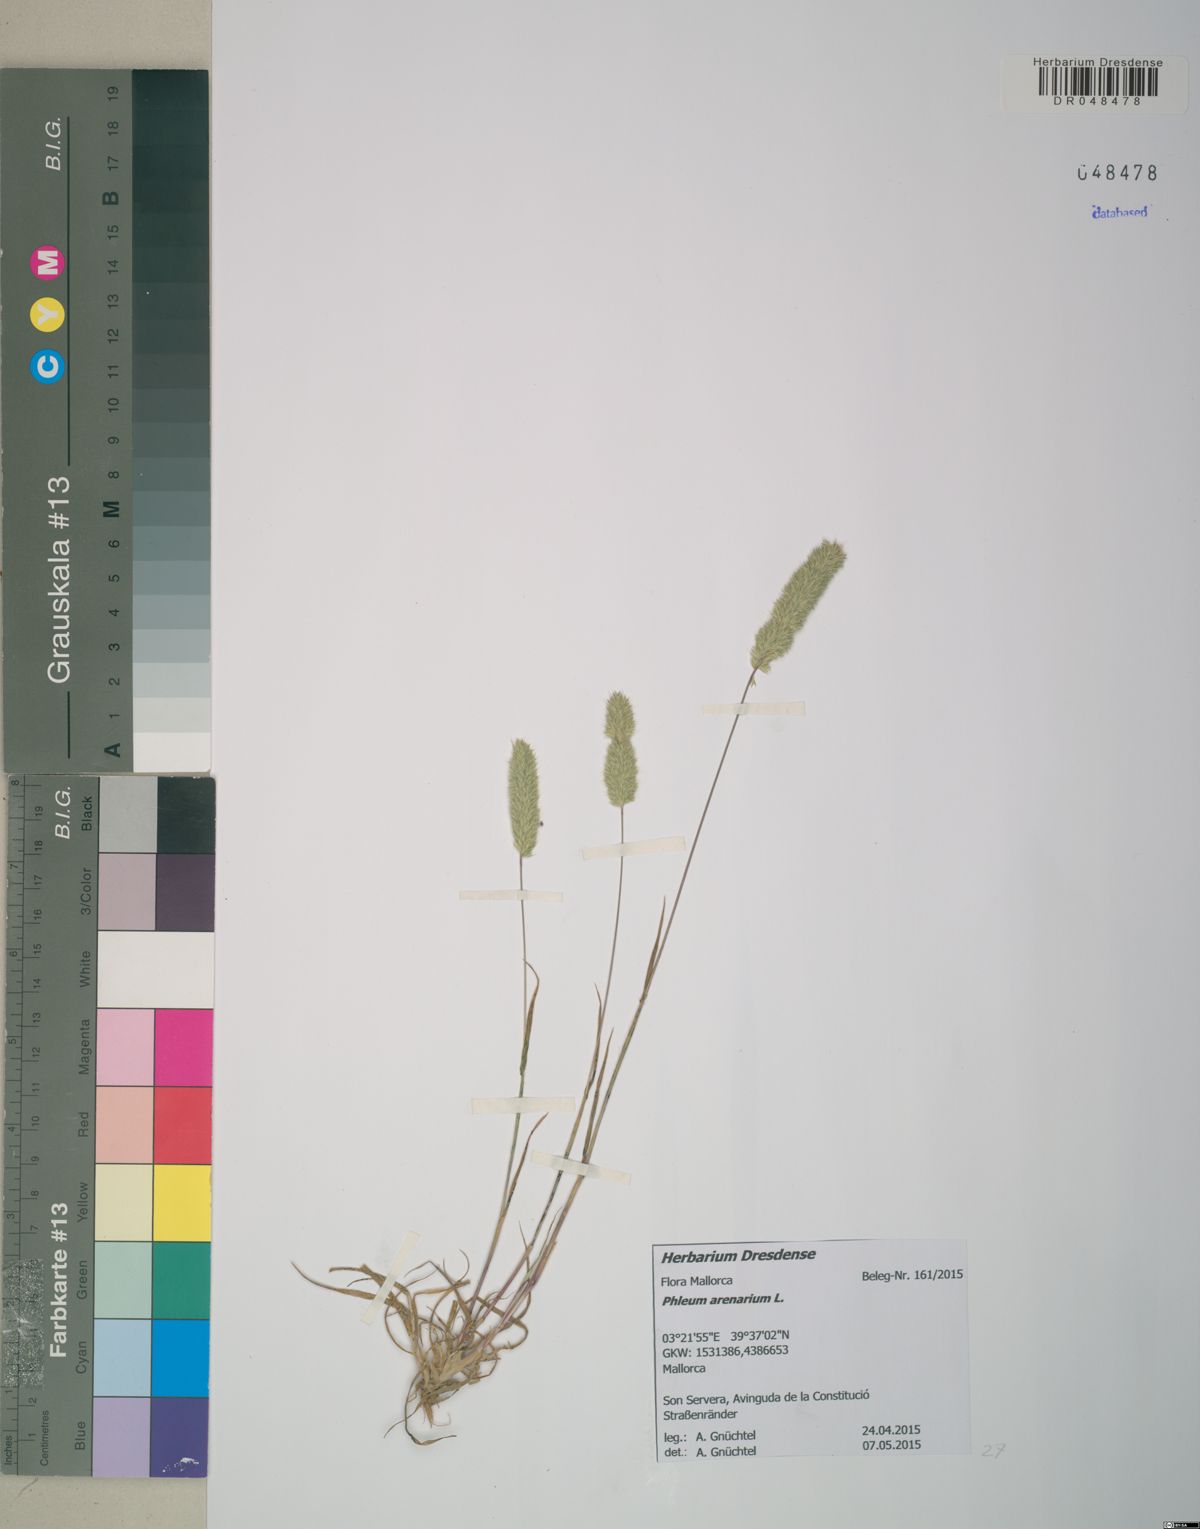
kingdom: Plantae
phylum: Tracheophyta
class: Liliopsida
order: Poales
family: Poaceae
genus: Phleum
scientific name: Phleum arenarium
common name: Sand cat's-tail
